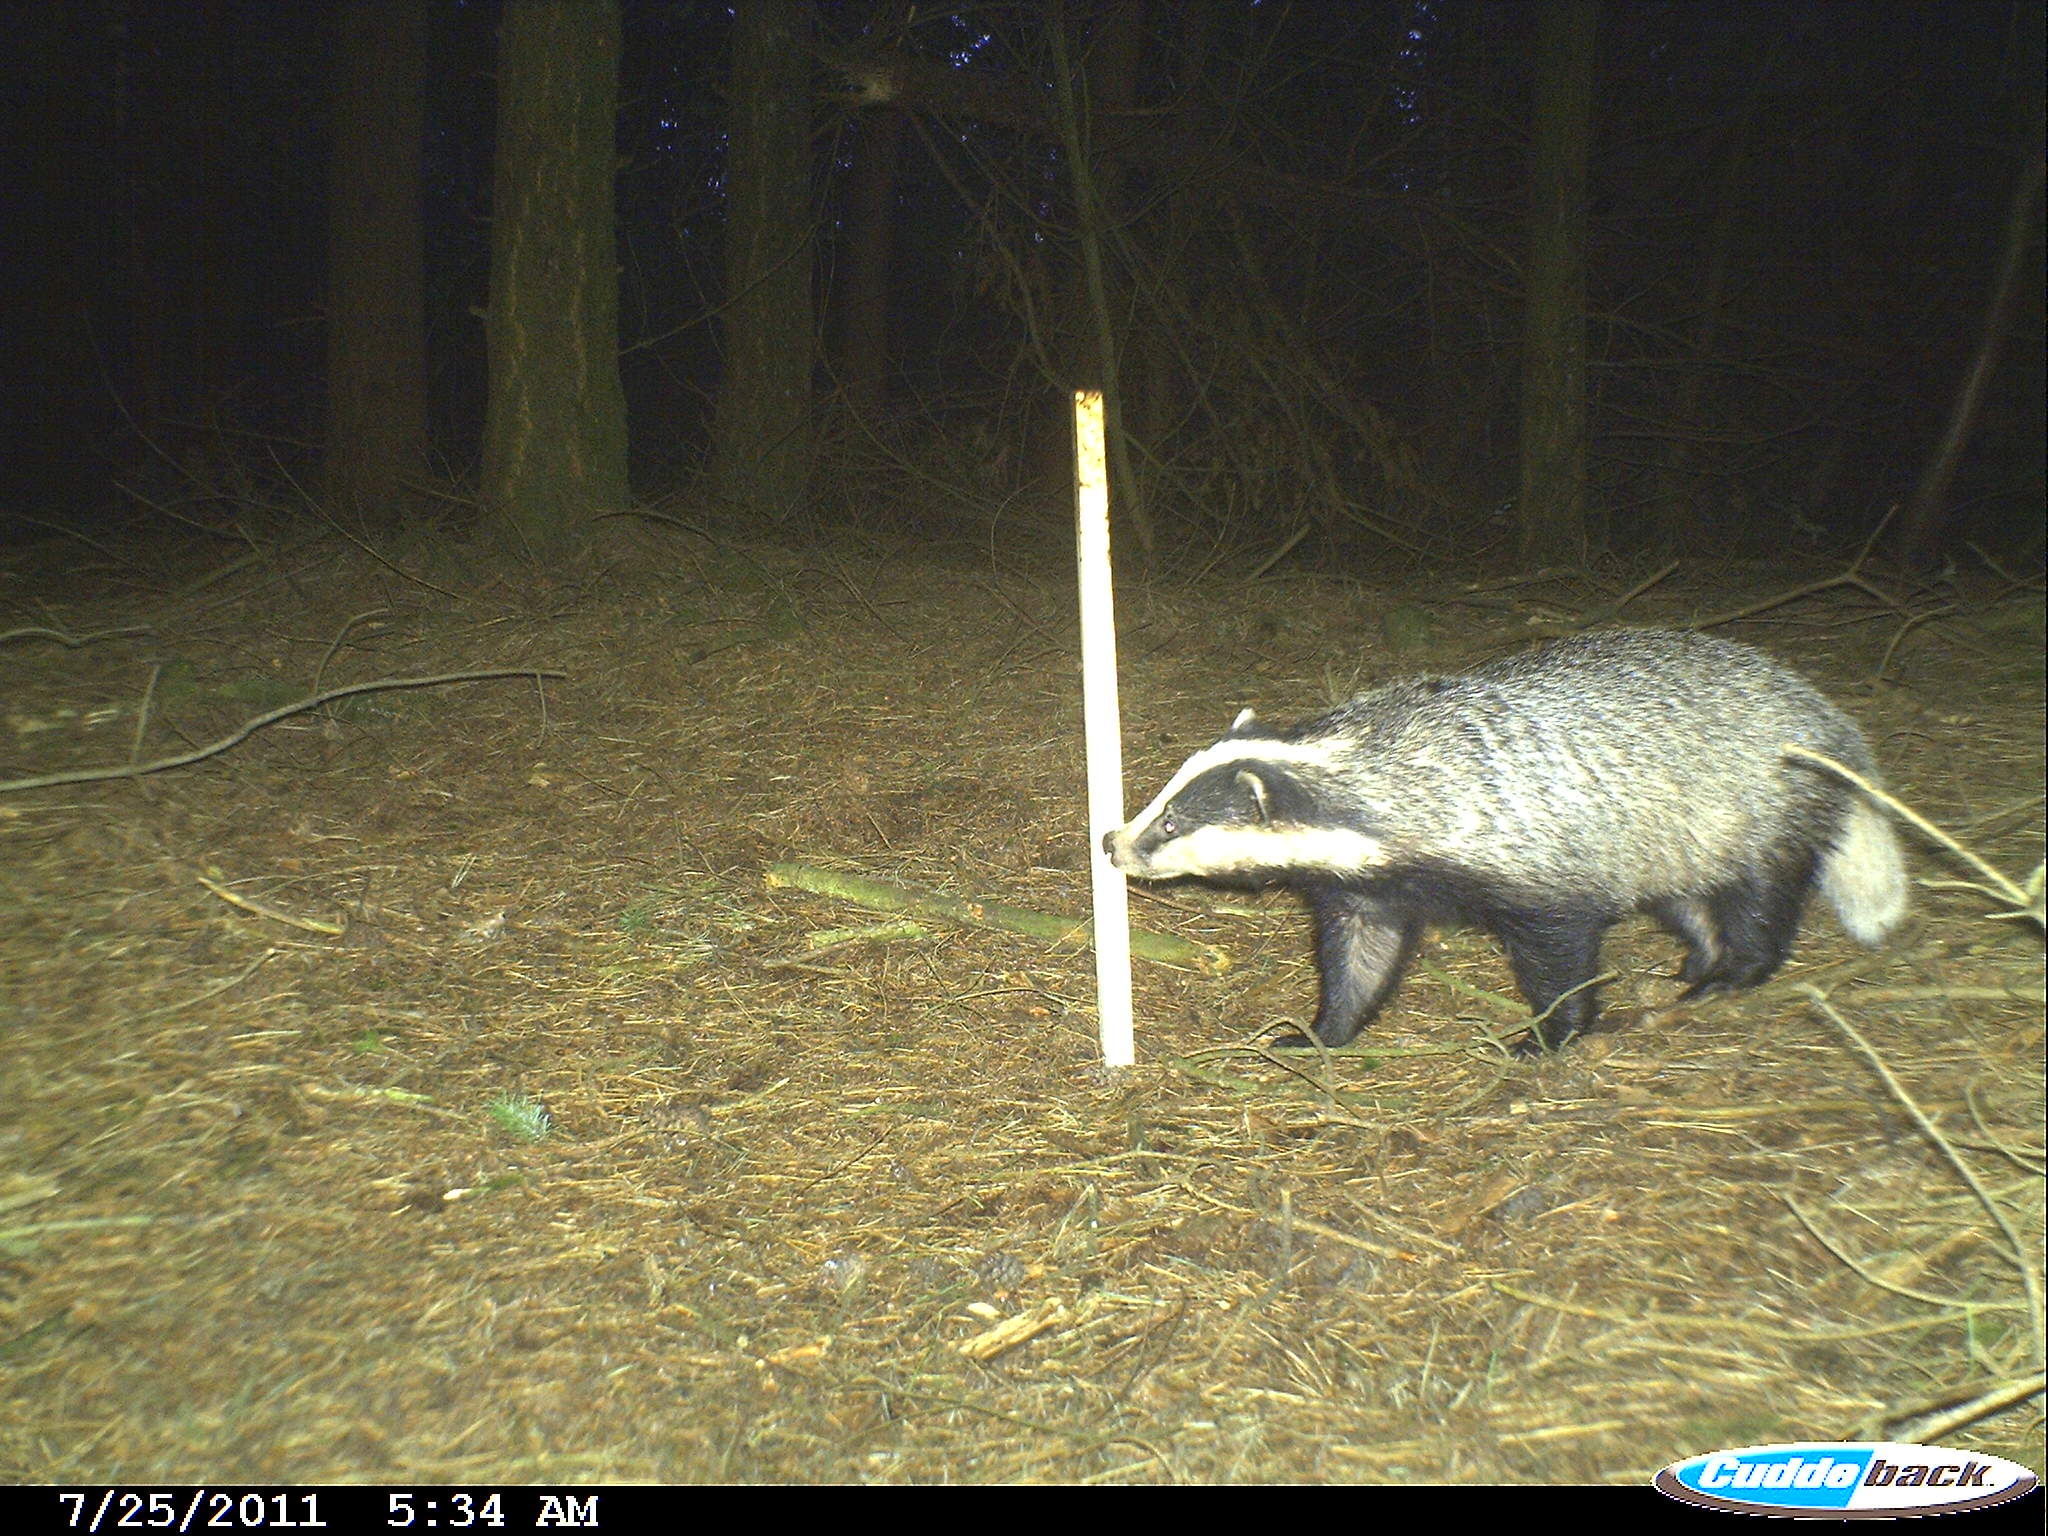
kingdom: Animalia
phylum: Chordata
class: Mammalia
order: Carnivora
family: Mustelidae
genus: Meles
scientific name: Meles meles
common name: Eurasian badger
